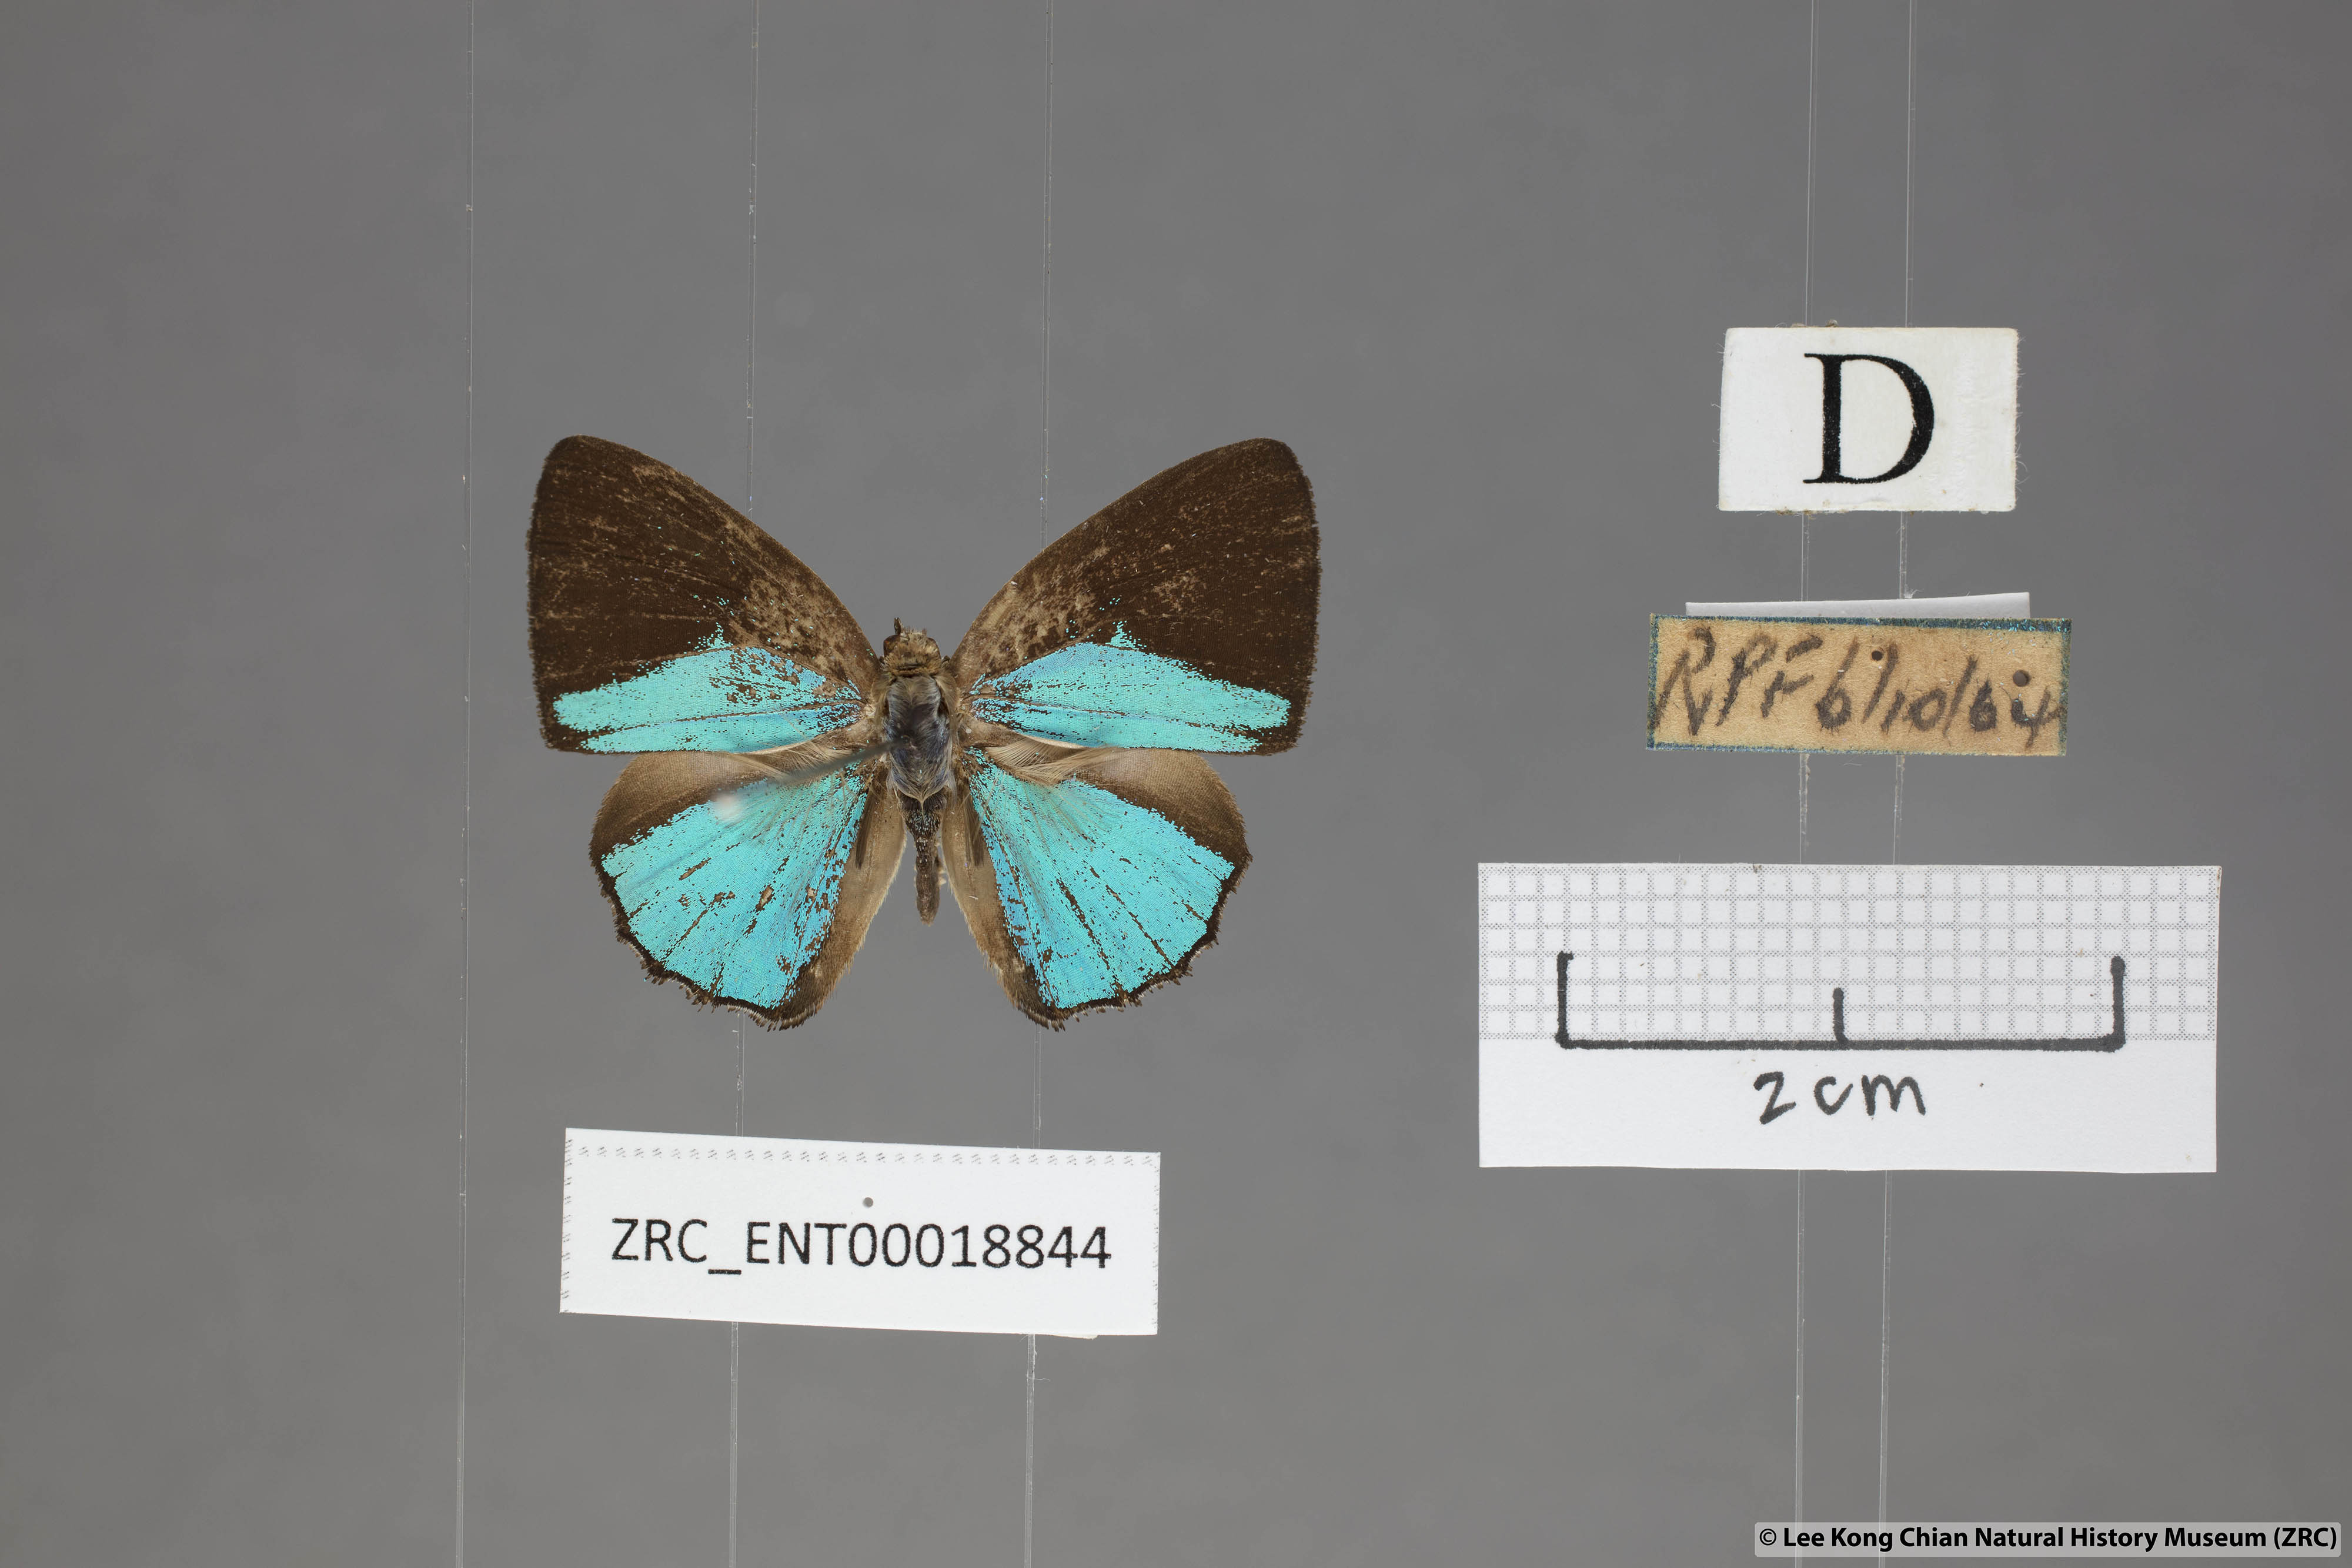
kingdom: Animalia
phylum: Arthropoda
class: Insecta
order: Lepidoptera
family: Lycaenidae
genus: Poritia
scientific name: Poritia sumatrae
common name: Sumatran gem
